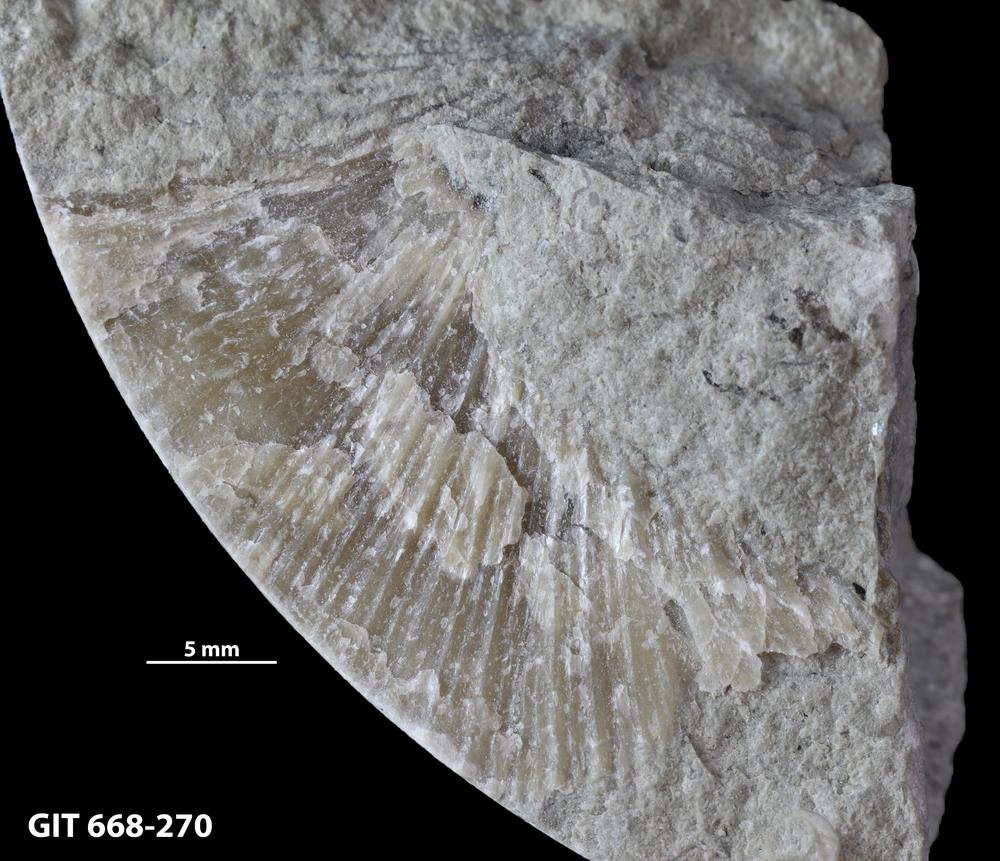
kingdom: Animalia
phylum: Brachiopoda
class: Rhynchonellata
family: Plaesiomyidae
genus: Plaesiomys
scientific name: Plaesiomys
